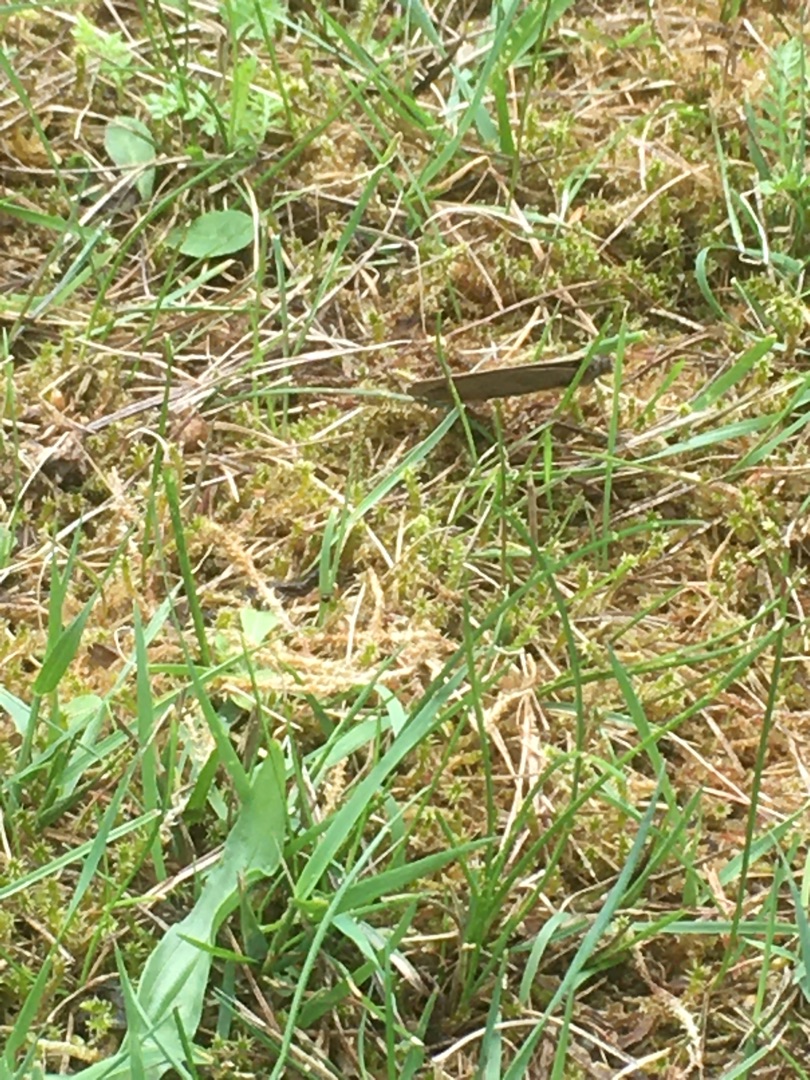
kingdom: Animalia
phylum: Arthropoda
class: Insecta
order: Lepidoptera
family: Nymphalidae
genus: Maniola
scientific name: Maniola jurtina
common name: Græsrandøje
